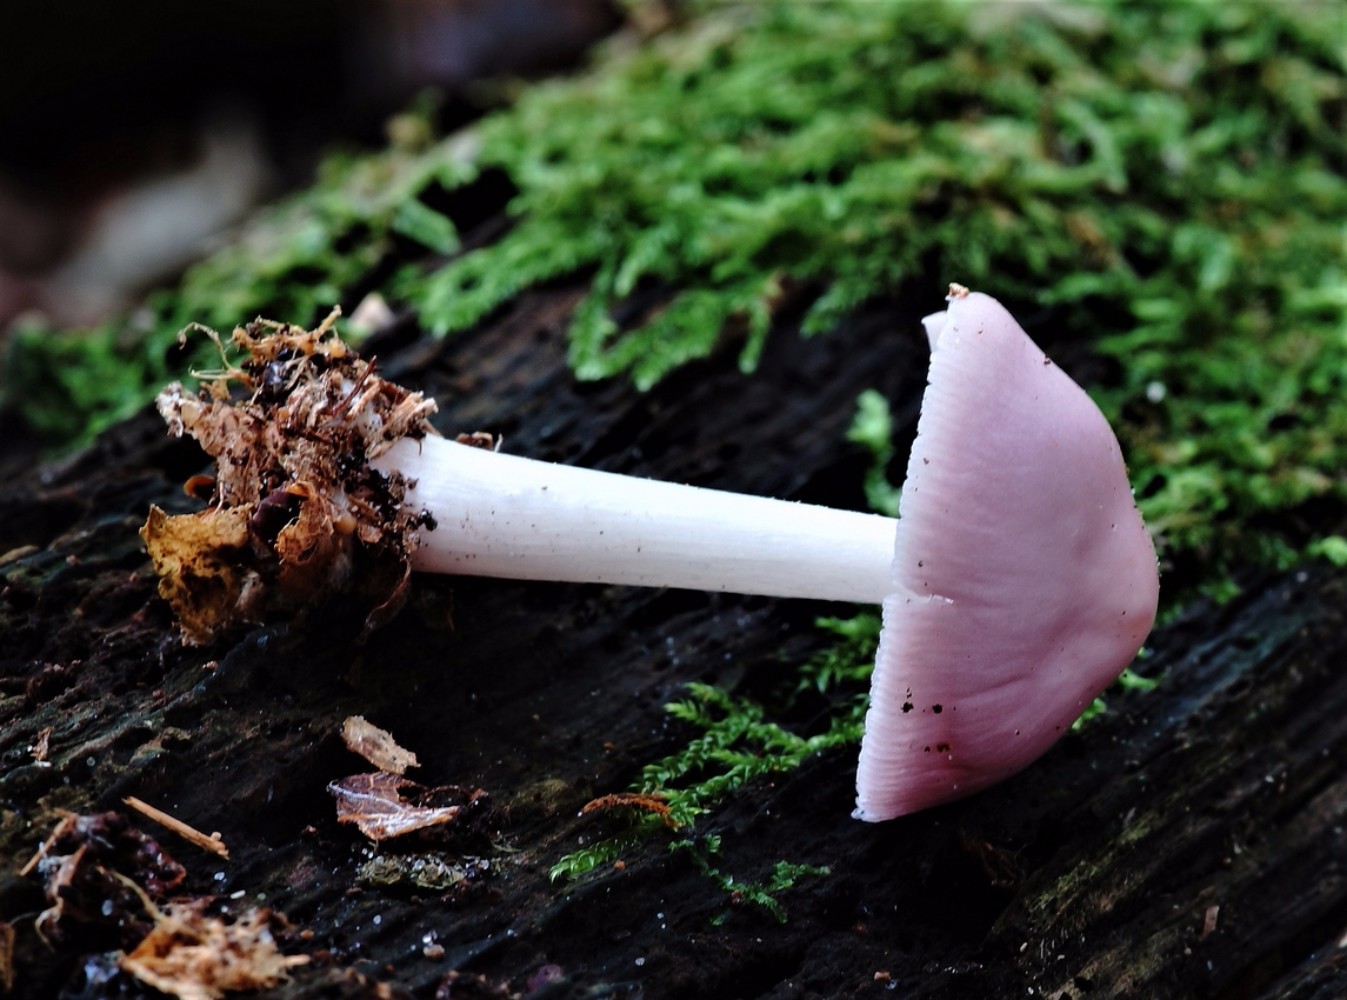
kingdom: Fungi
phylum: Basidiomycota
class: Agaricomycetes
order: Agaricales
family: Mycenaceae
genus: Mycena
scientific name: Mycena rosea
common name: rosa huesvamp
